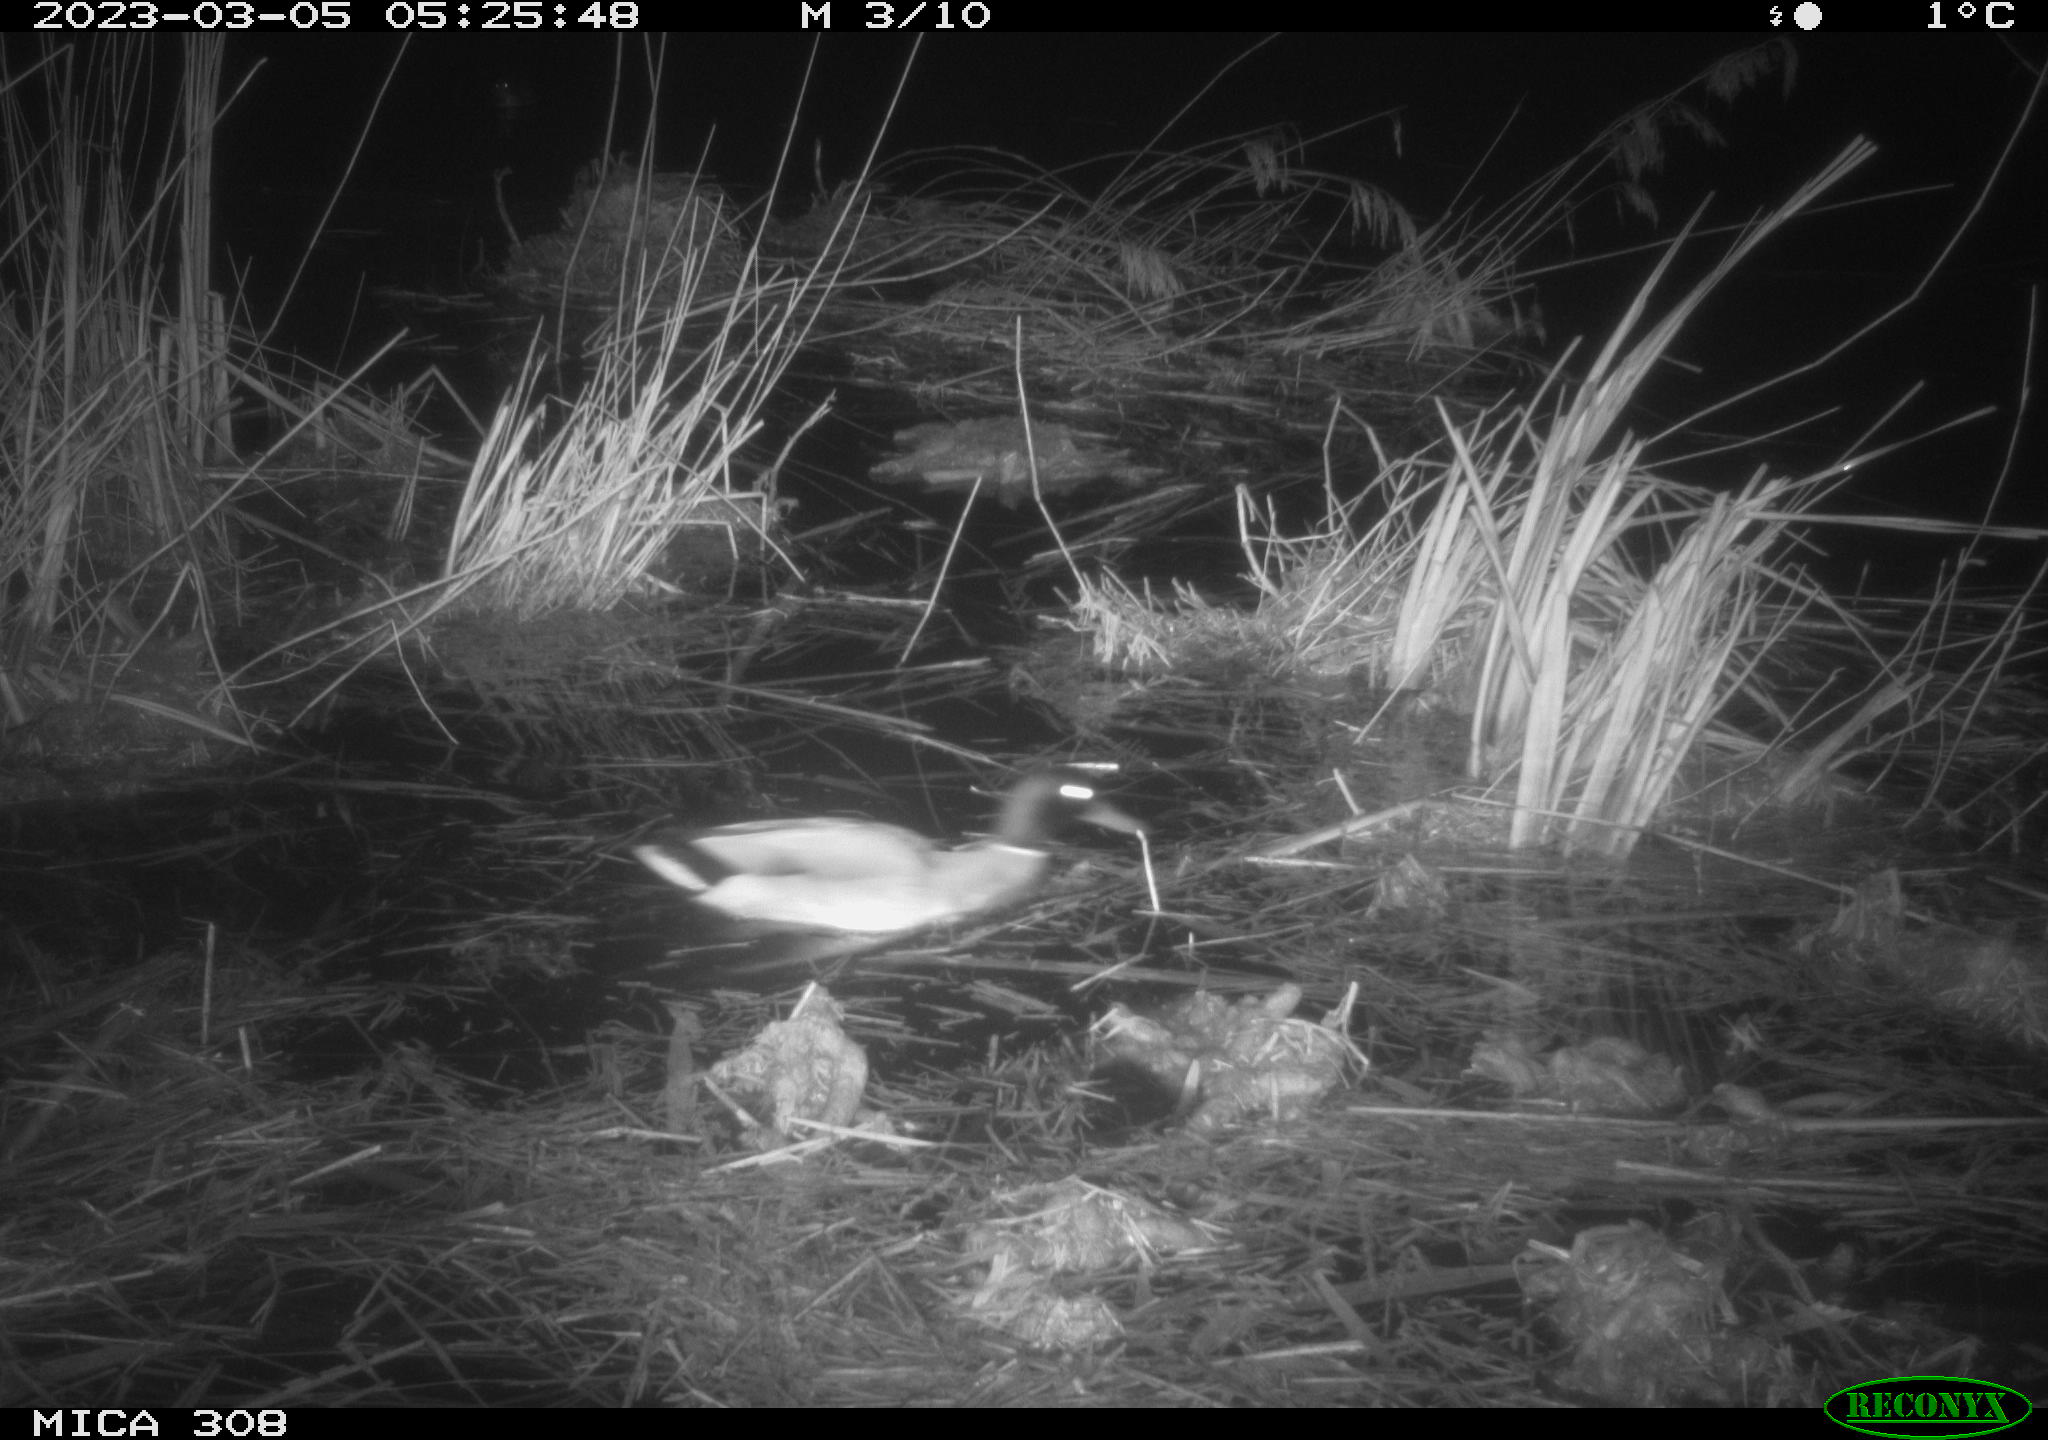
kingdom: Animalia
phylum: Chordata
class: Aves
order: Anseriformes
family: Anatidae
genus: Anas
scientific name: Anas
